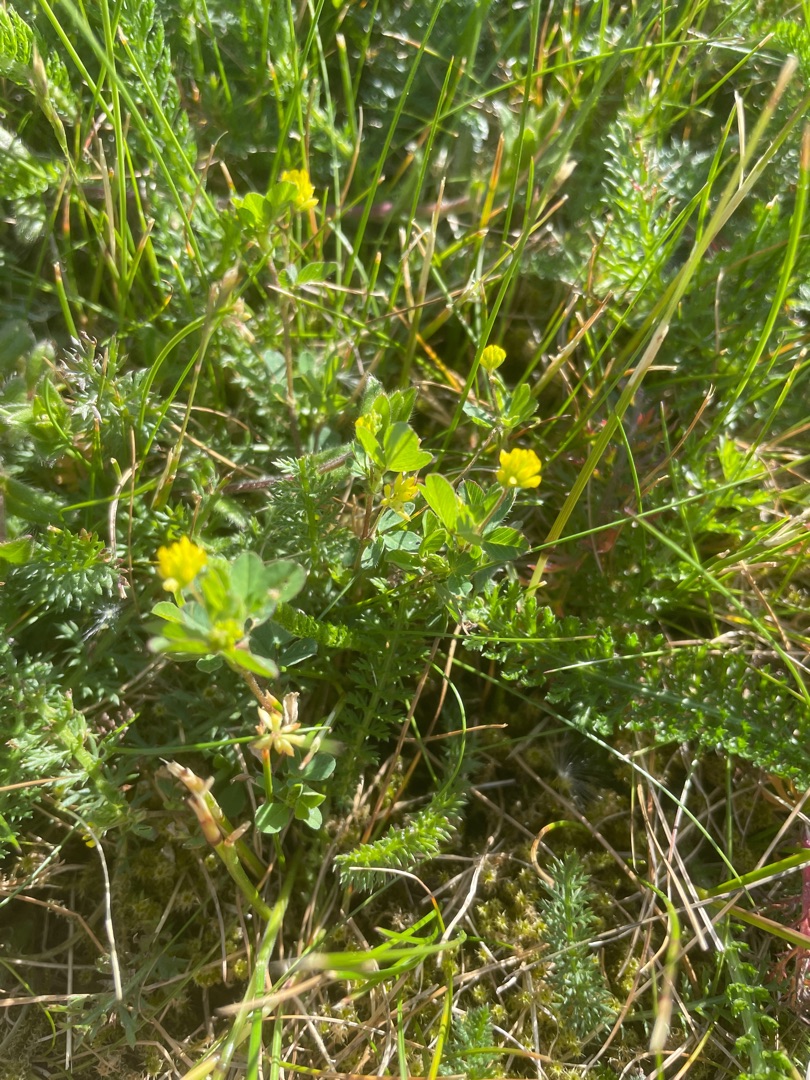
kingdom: Plantae
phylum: Tracheophyta
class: Magnoliopsida
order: Fabales
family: Fabaceae
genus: Trifolium
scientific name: Trifolium dubium
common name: Fin kløver
